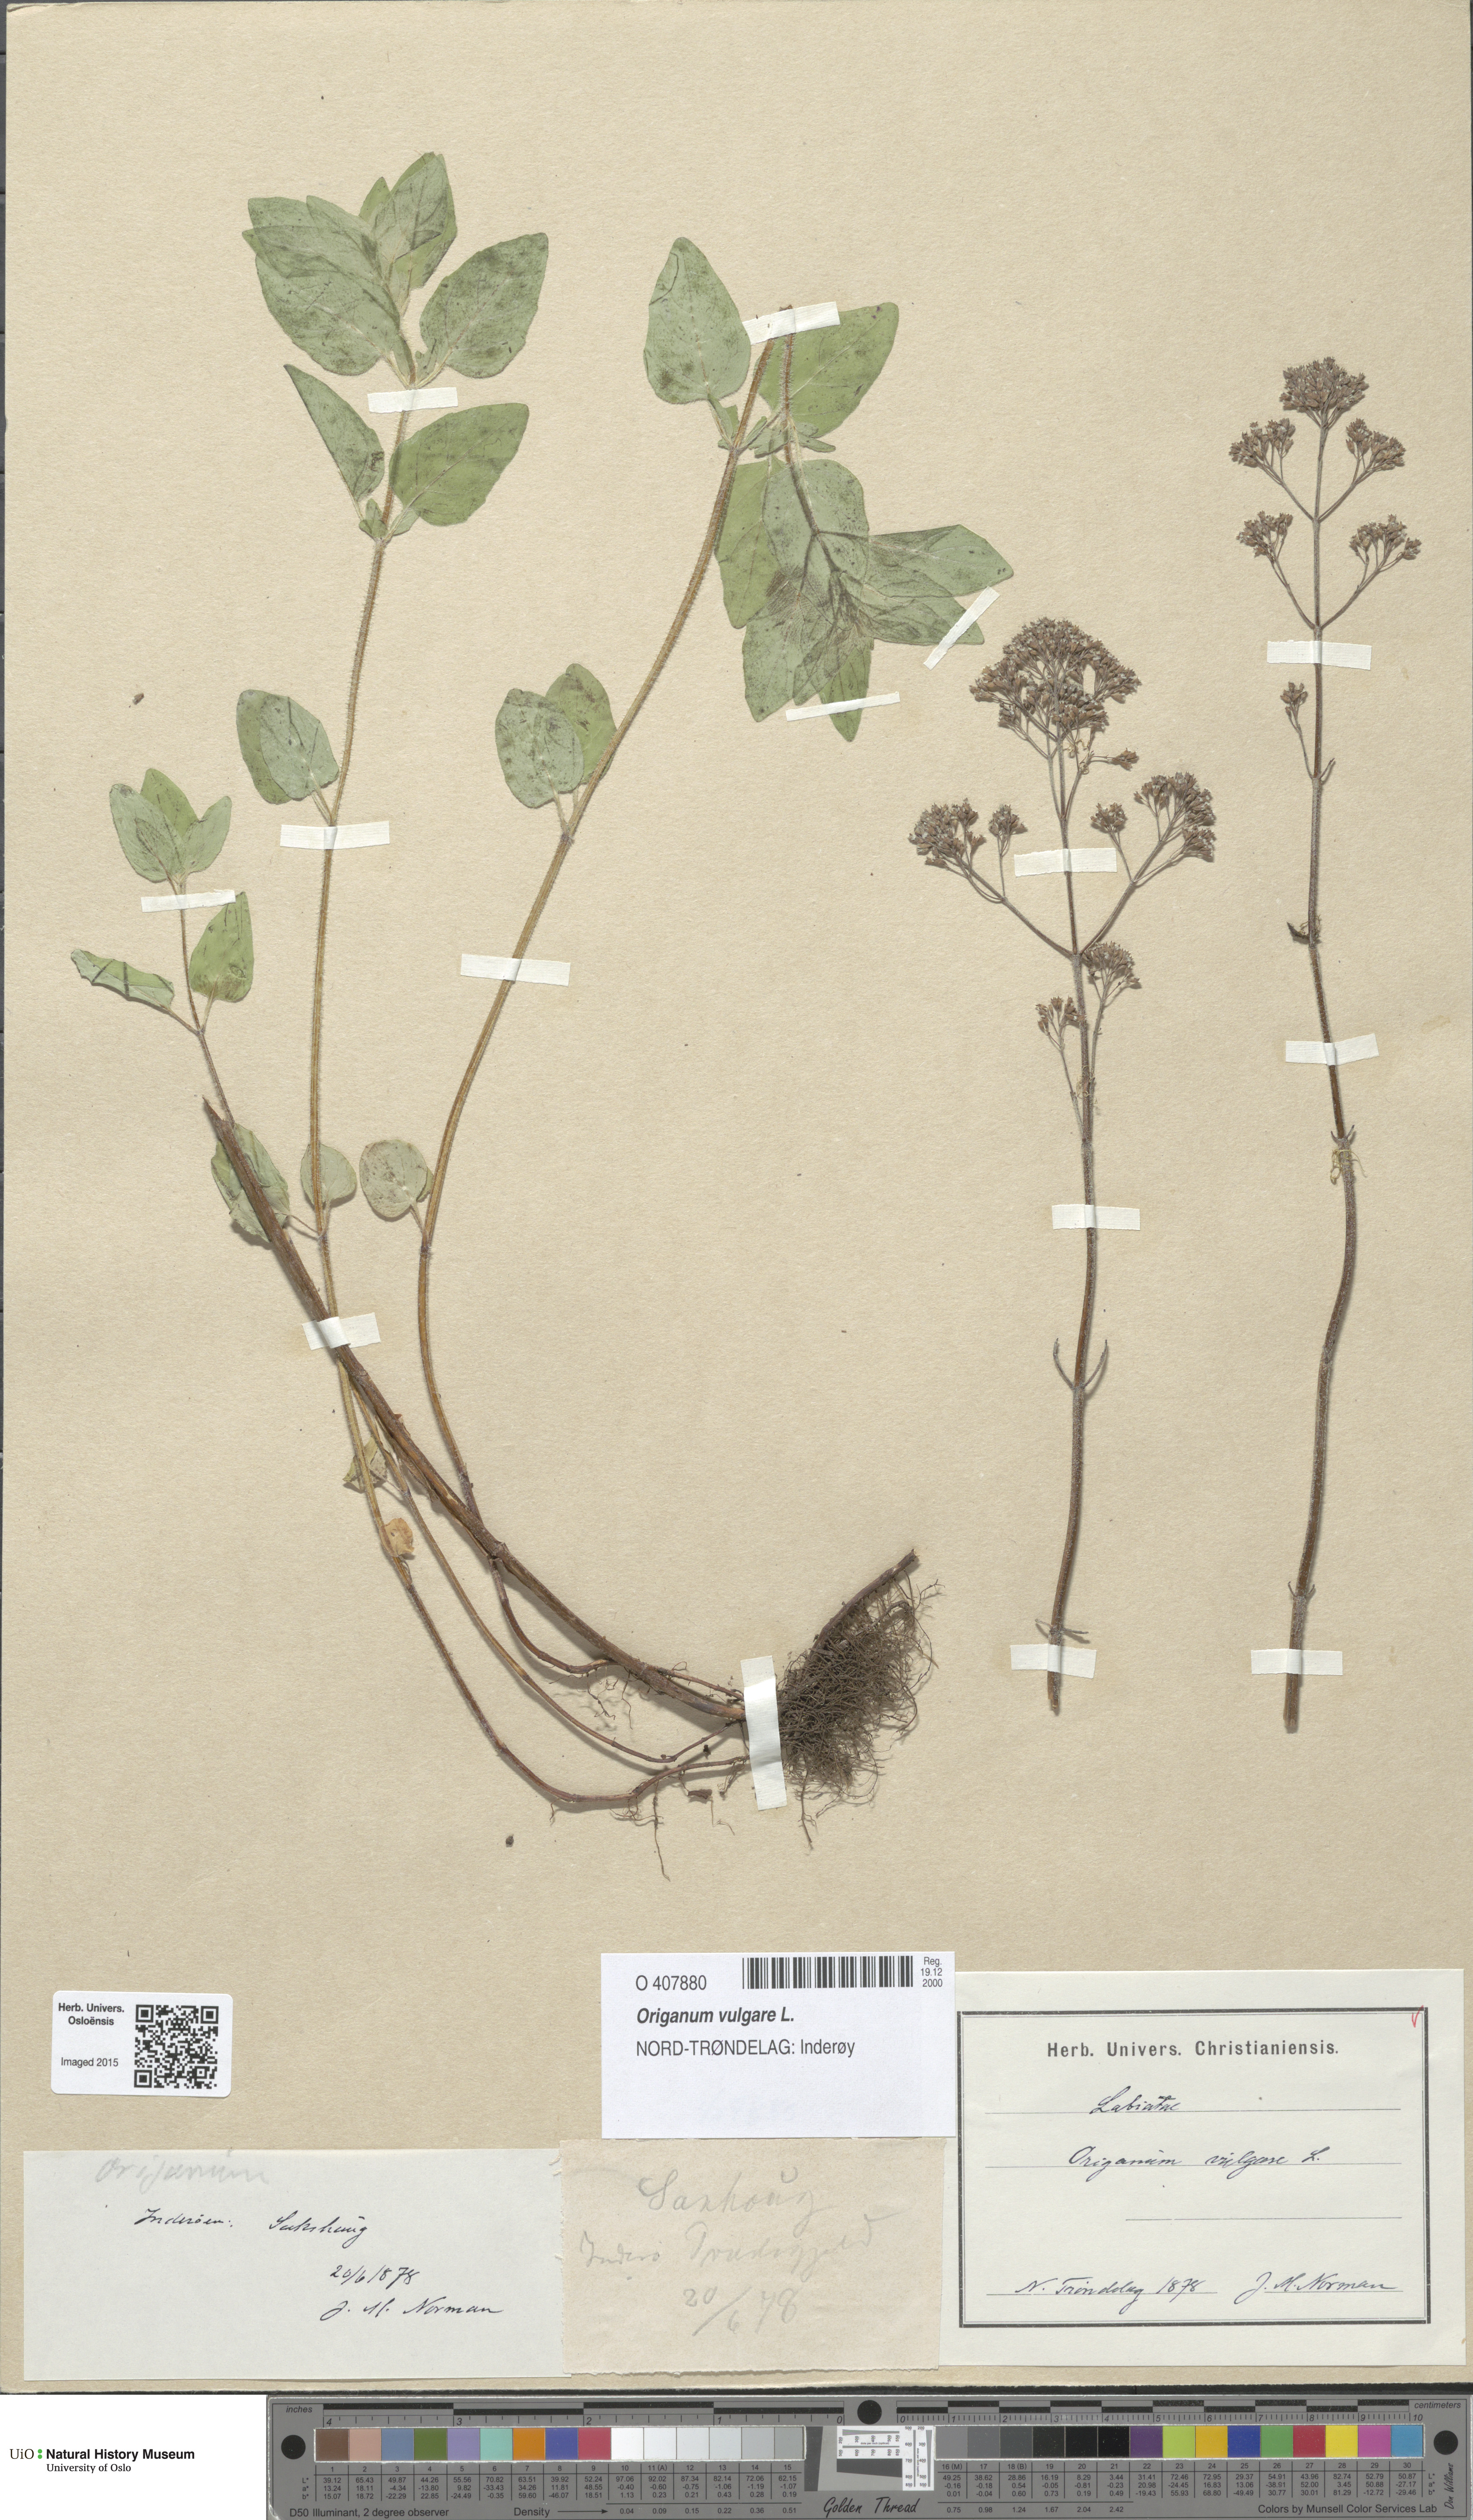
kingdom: Plantae
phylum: Tracheophyta
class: Magnoliopsida
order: Lamiales
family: Lamiaceae
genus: Origanum
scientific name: Origanum vulgare
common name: Wild marjoram
